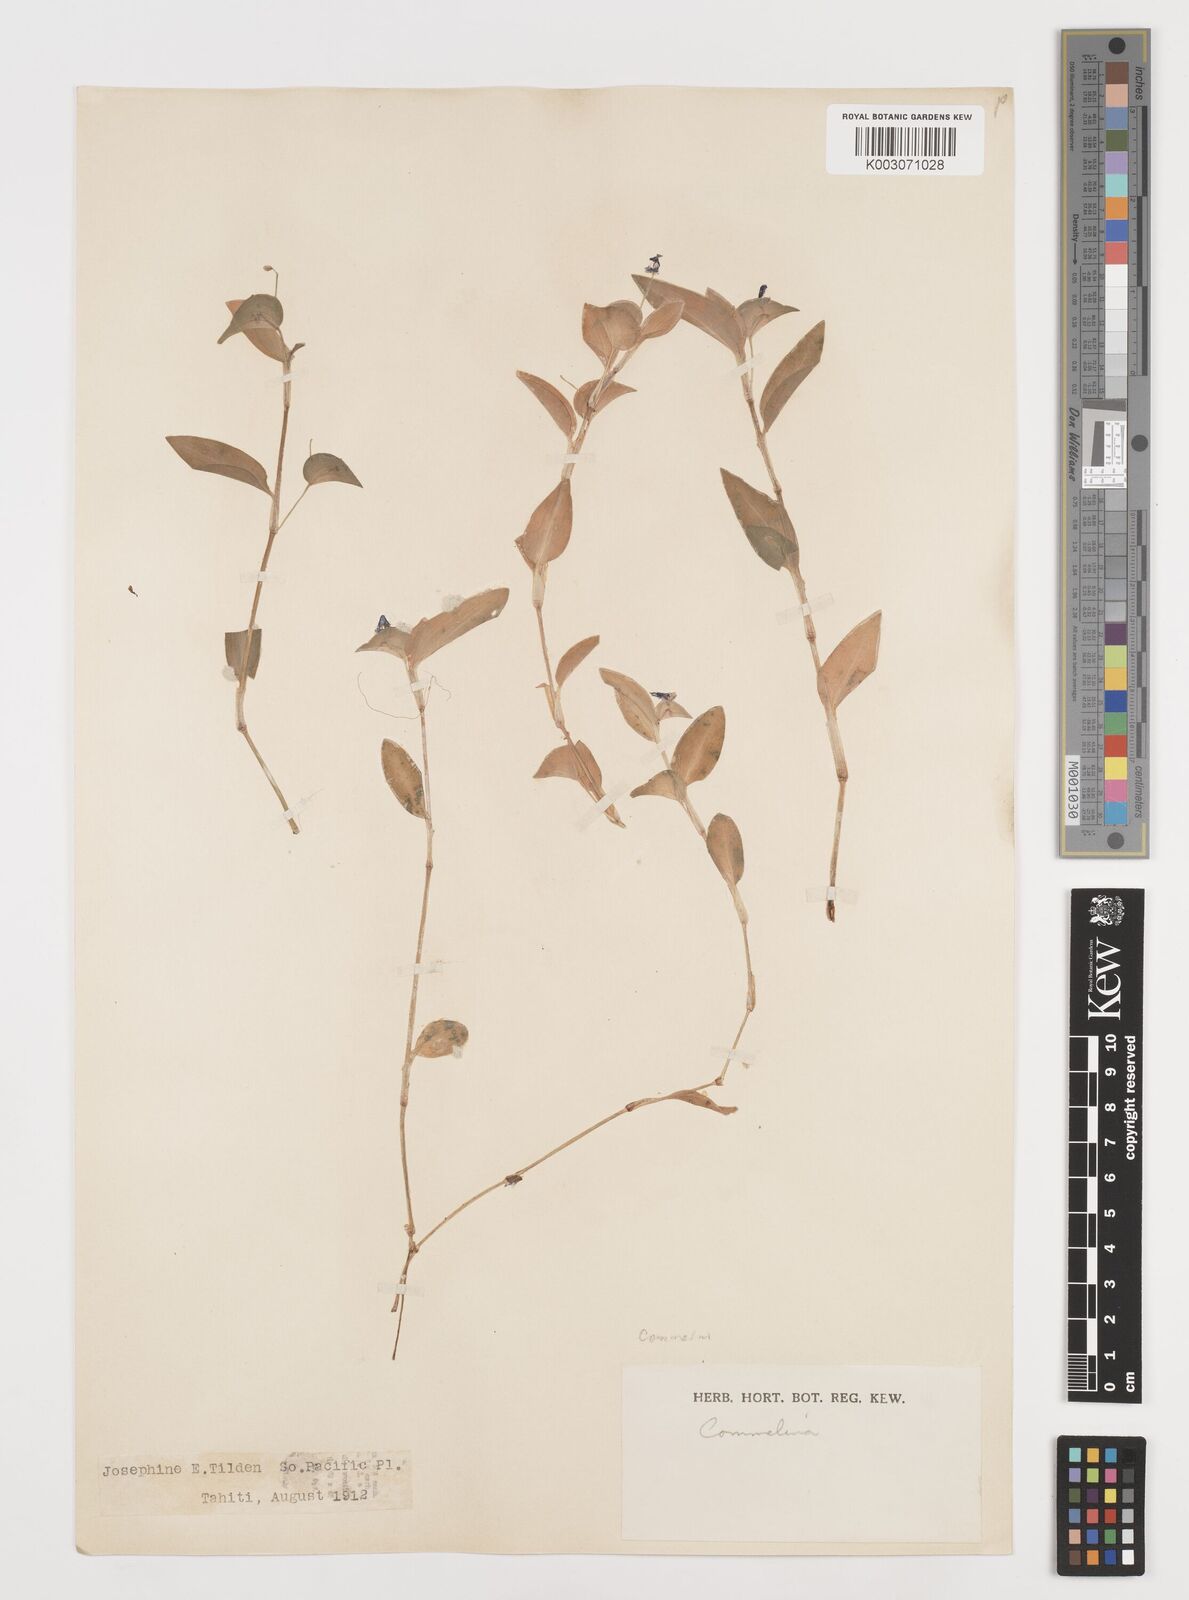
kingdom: Plantae
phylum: Tracheophyta
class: Liliopsida
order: Commelinales
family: Commelinaceae
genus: Commelina
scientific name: Commelina
